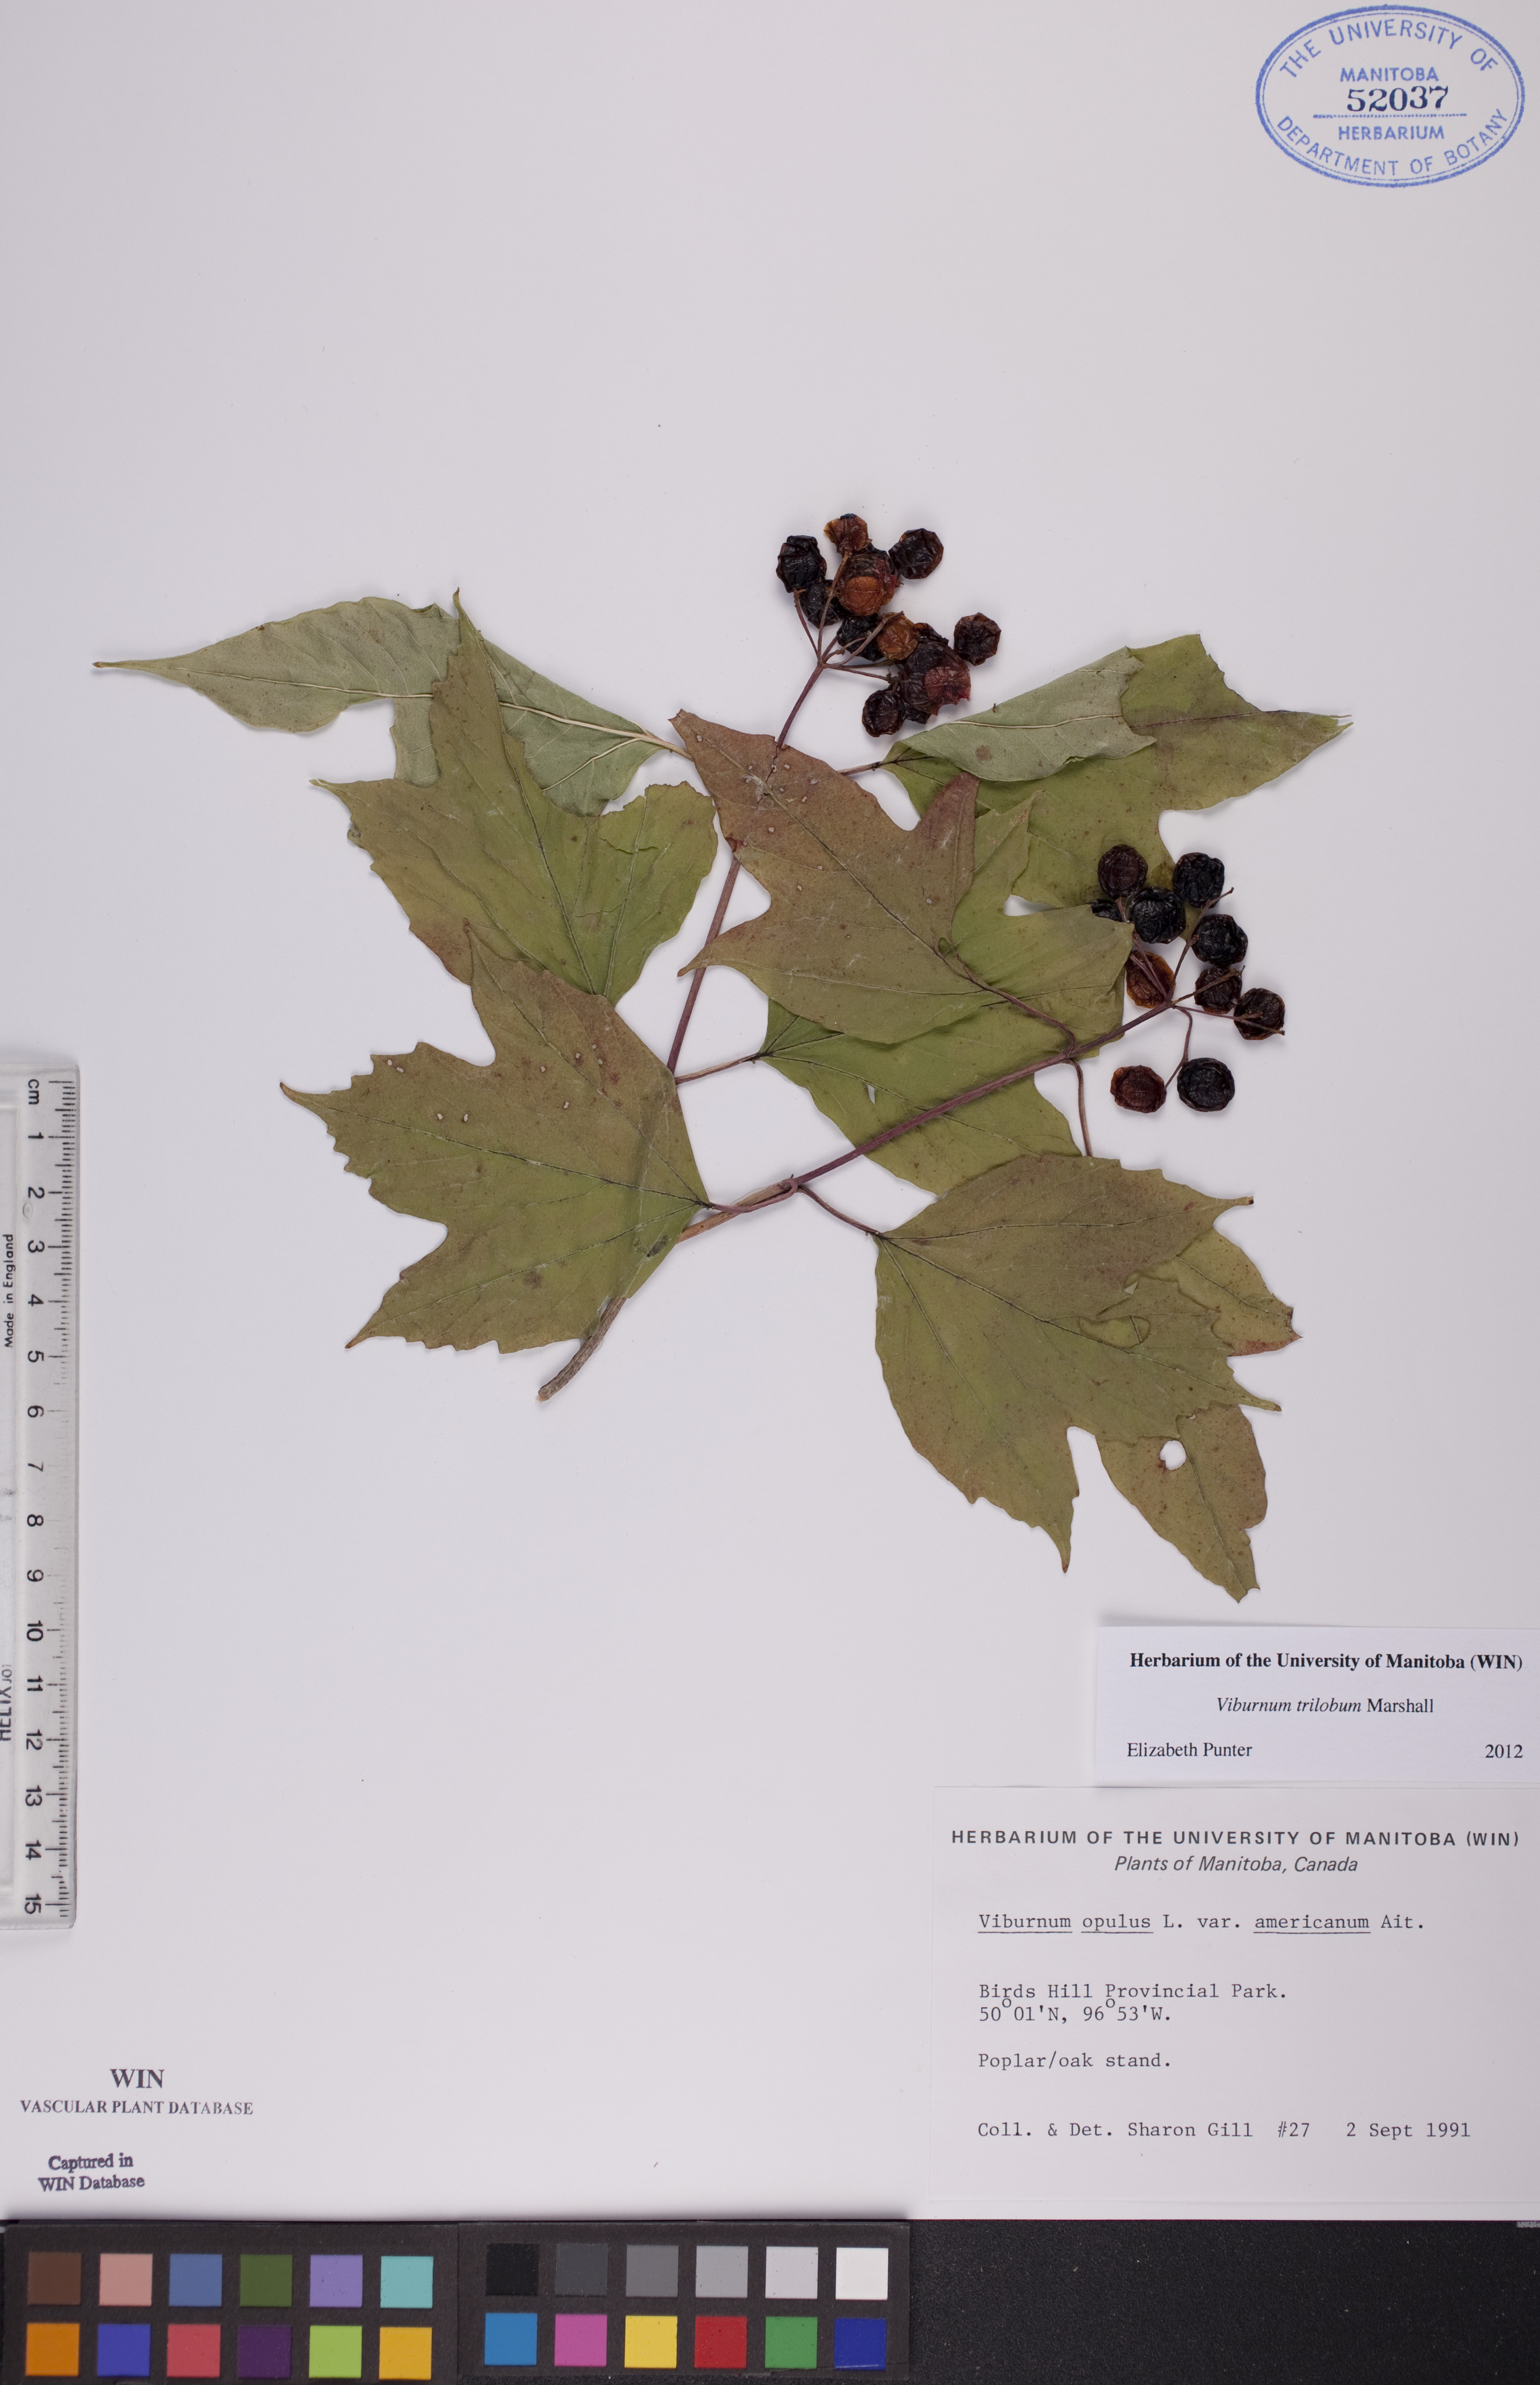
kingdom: Plantae
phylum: Tracheophyta
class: Magnoliopsida
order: Dipsacales
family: Viburnaceae
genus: Viburnum
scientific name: Viburnum trilobum
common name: American cranberrybush
